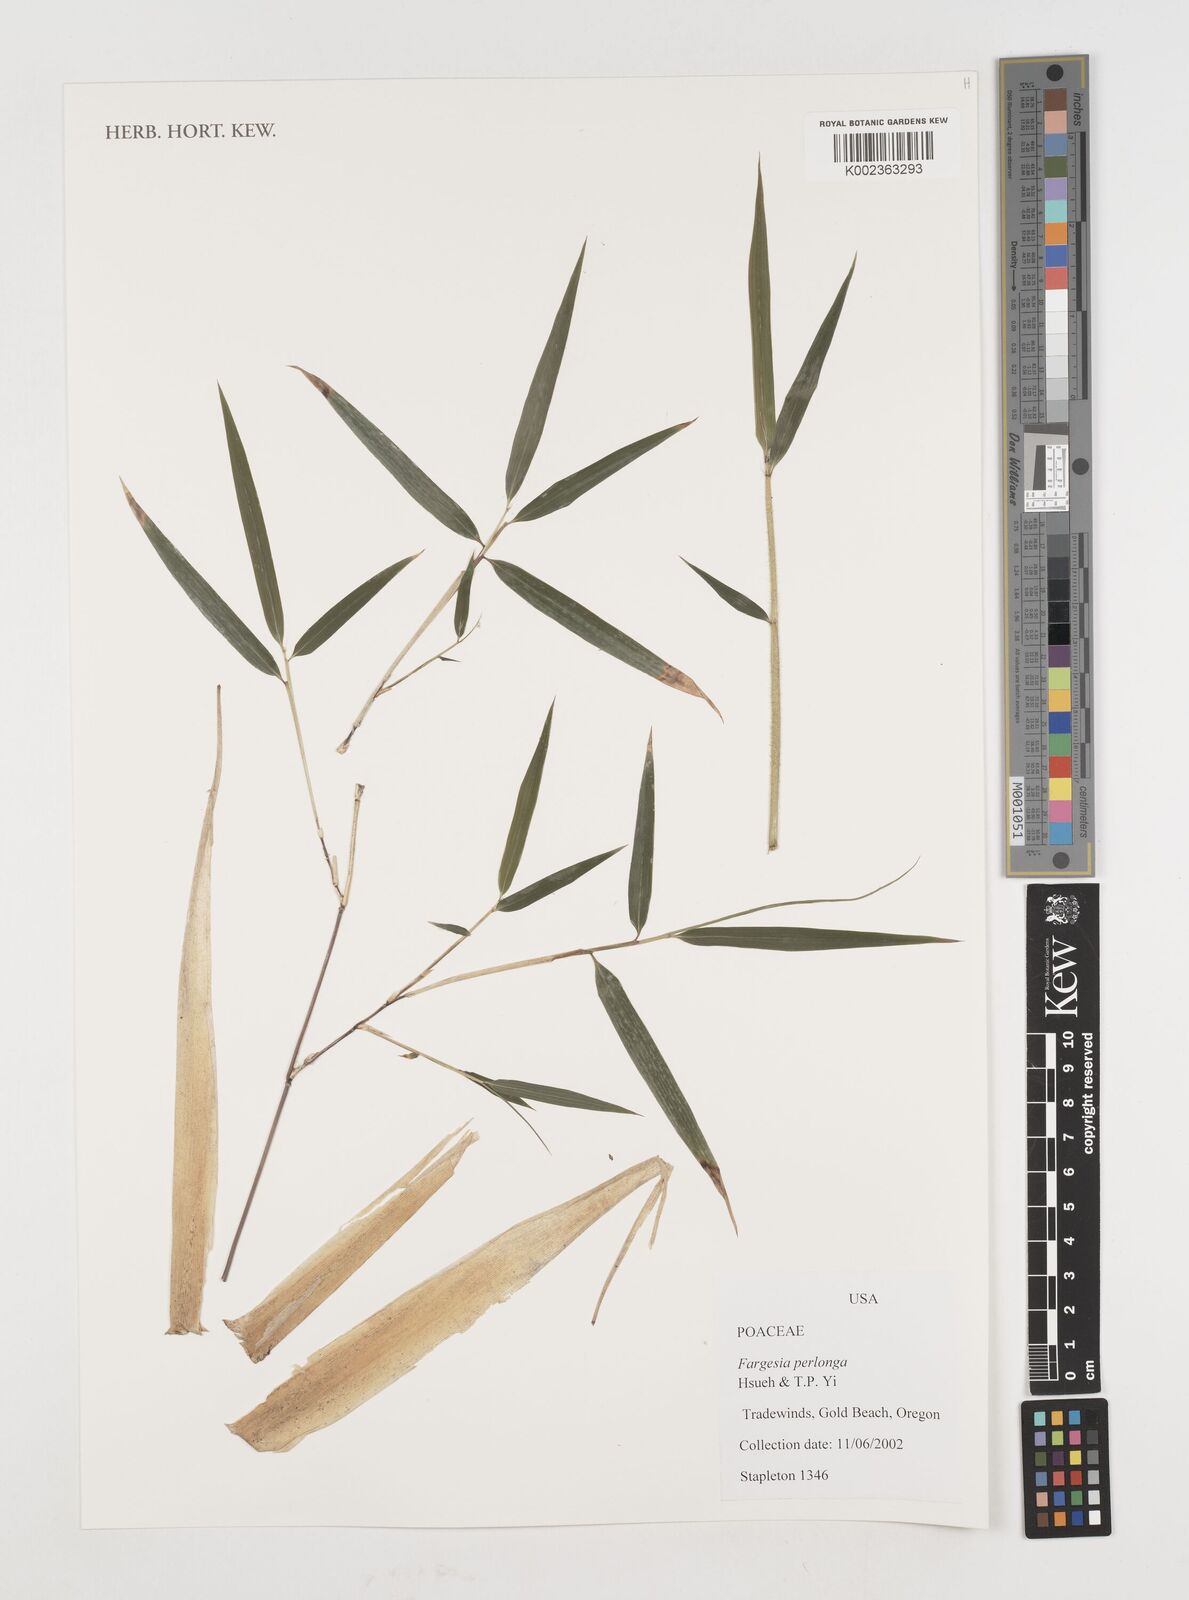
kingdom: Plantae
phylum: Tracheophyta
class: Liliopsida
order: Poales
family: Poaceae
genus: Borinda
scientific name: Borinda perlonga
